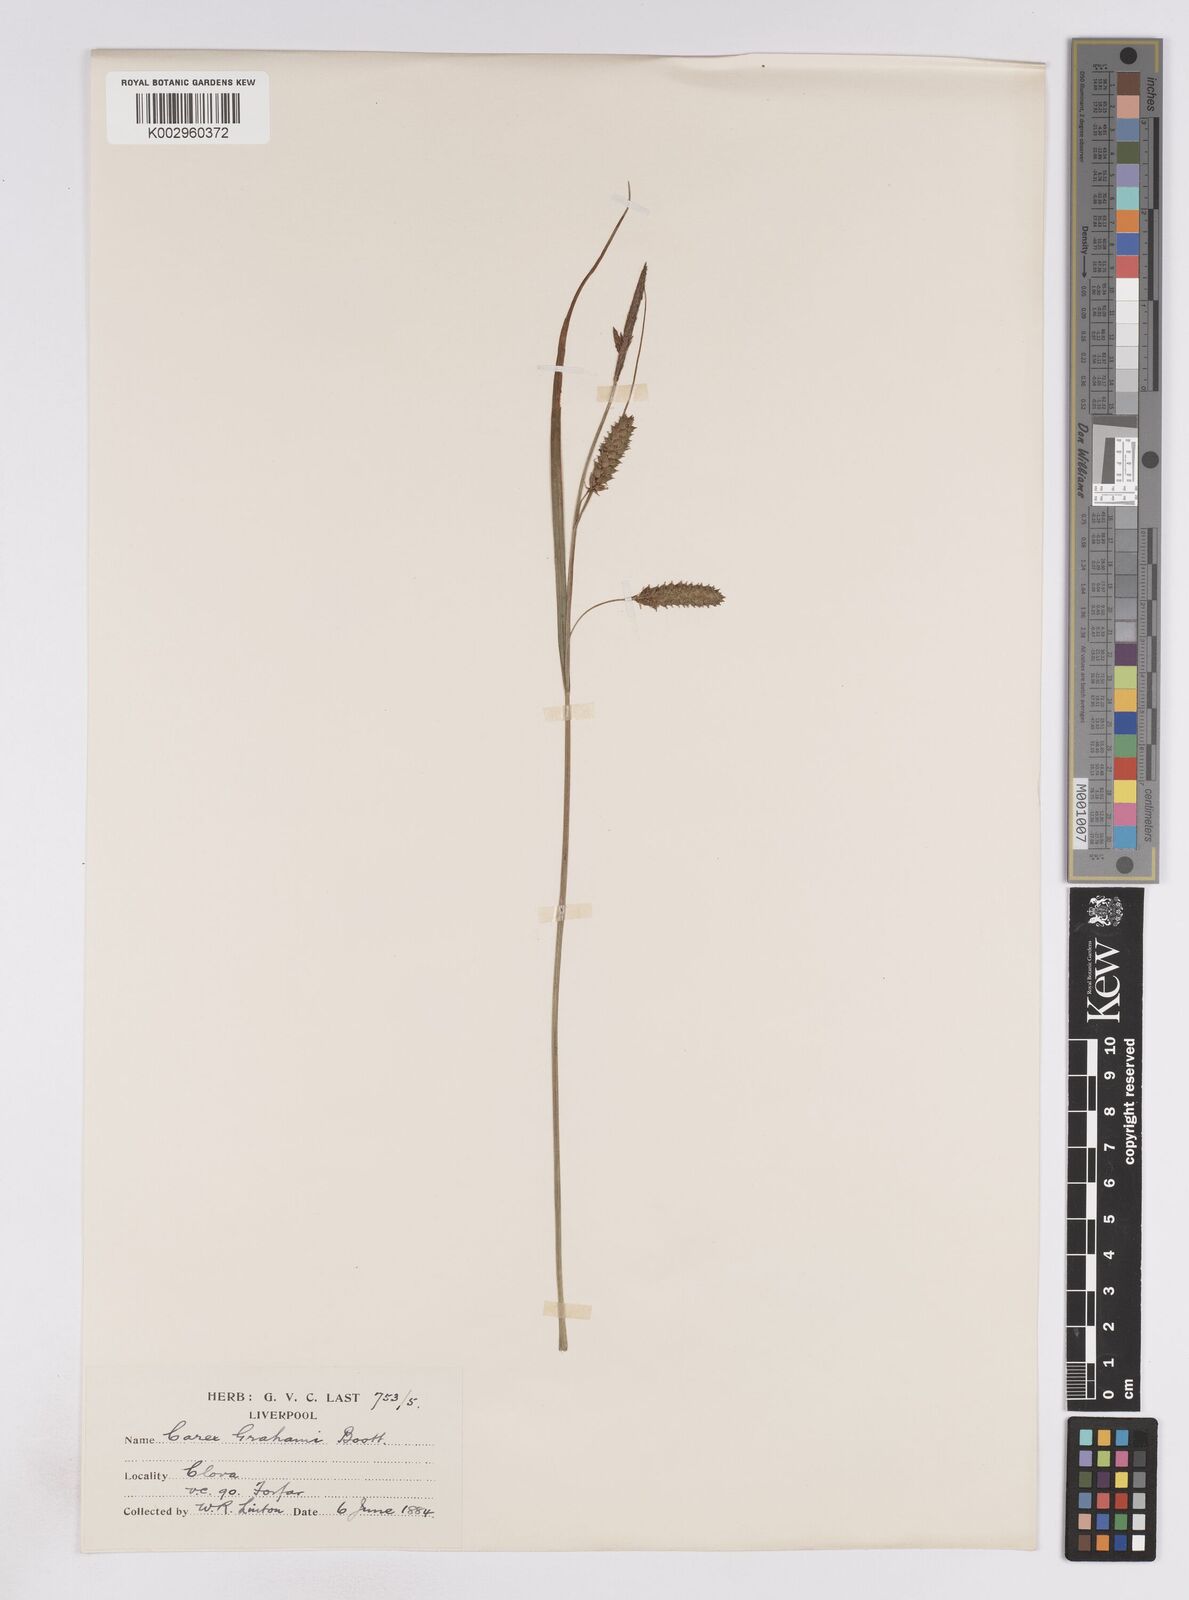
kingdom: Plantae
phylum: Tracheophyta
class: Liliopsida
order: Poales
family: Cyperaceae
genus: Carex
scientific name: Carex vesicaria
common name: Bladder-sedge
